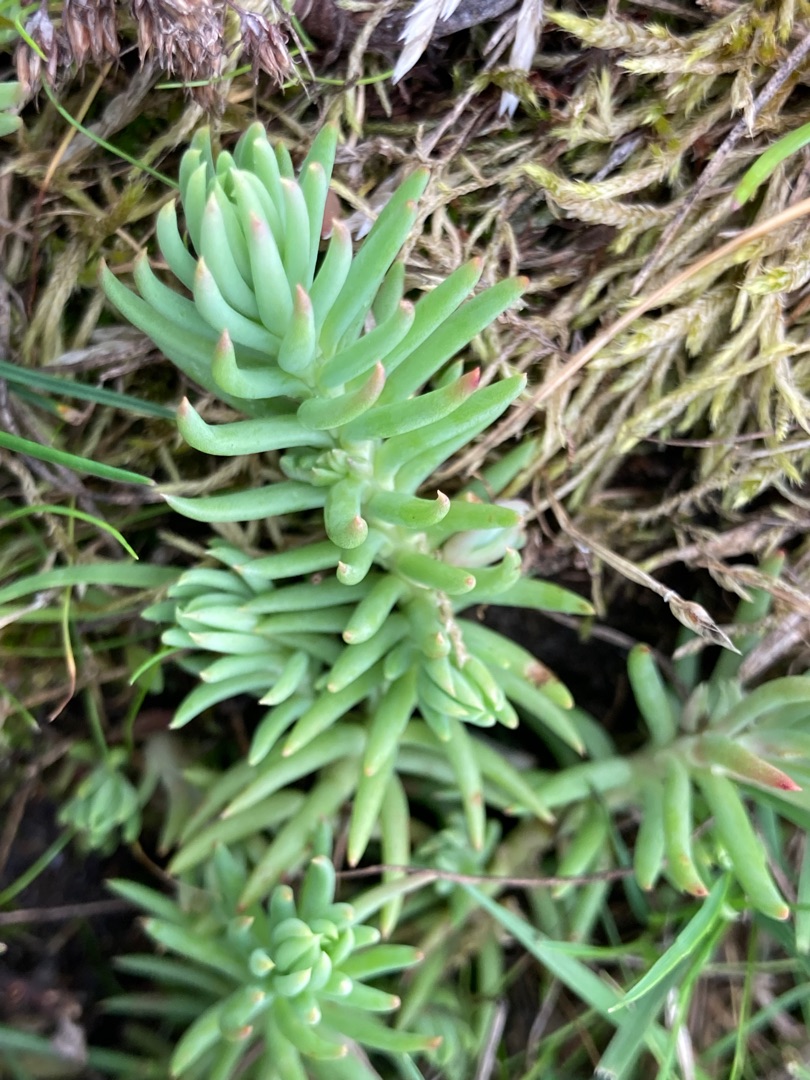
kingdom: Plantae
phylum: Tracheophyta
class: Magnoliopsida
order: Saxifragales
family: Crassulaceae
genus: Petrosedum
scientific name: Petrosedum rupestre
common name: Bjerg-stenurt
